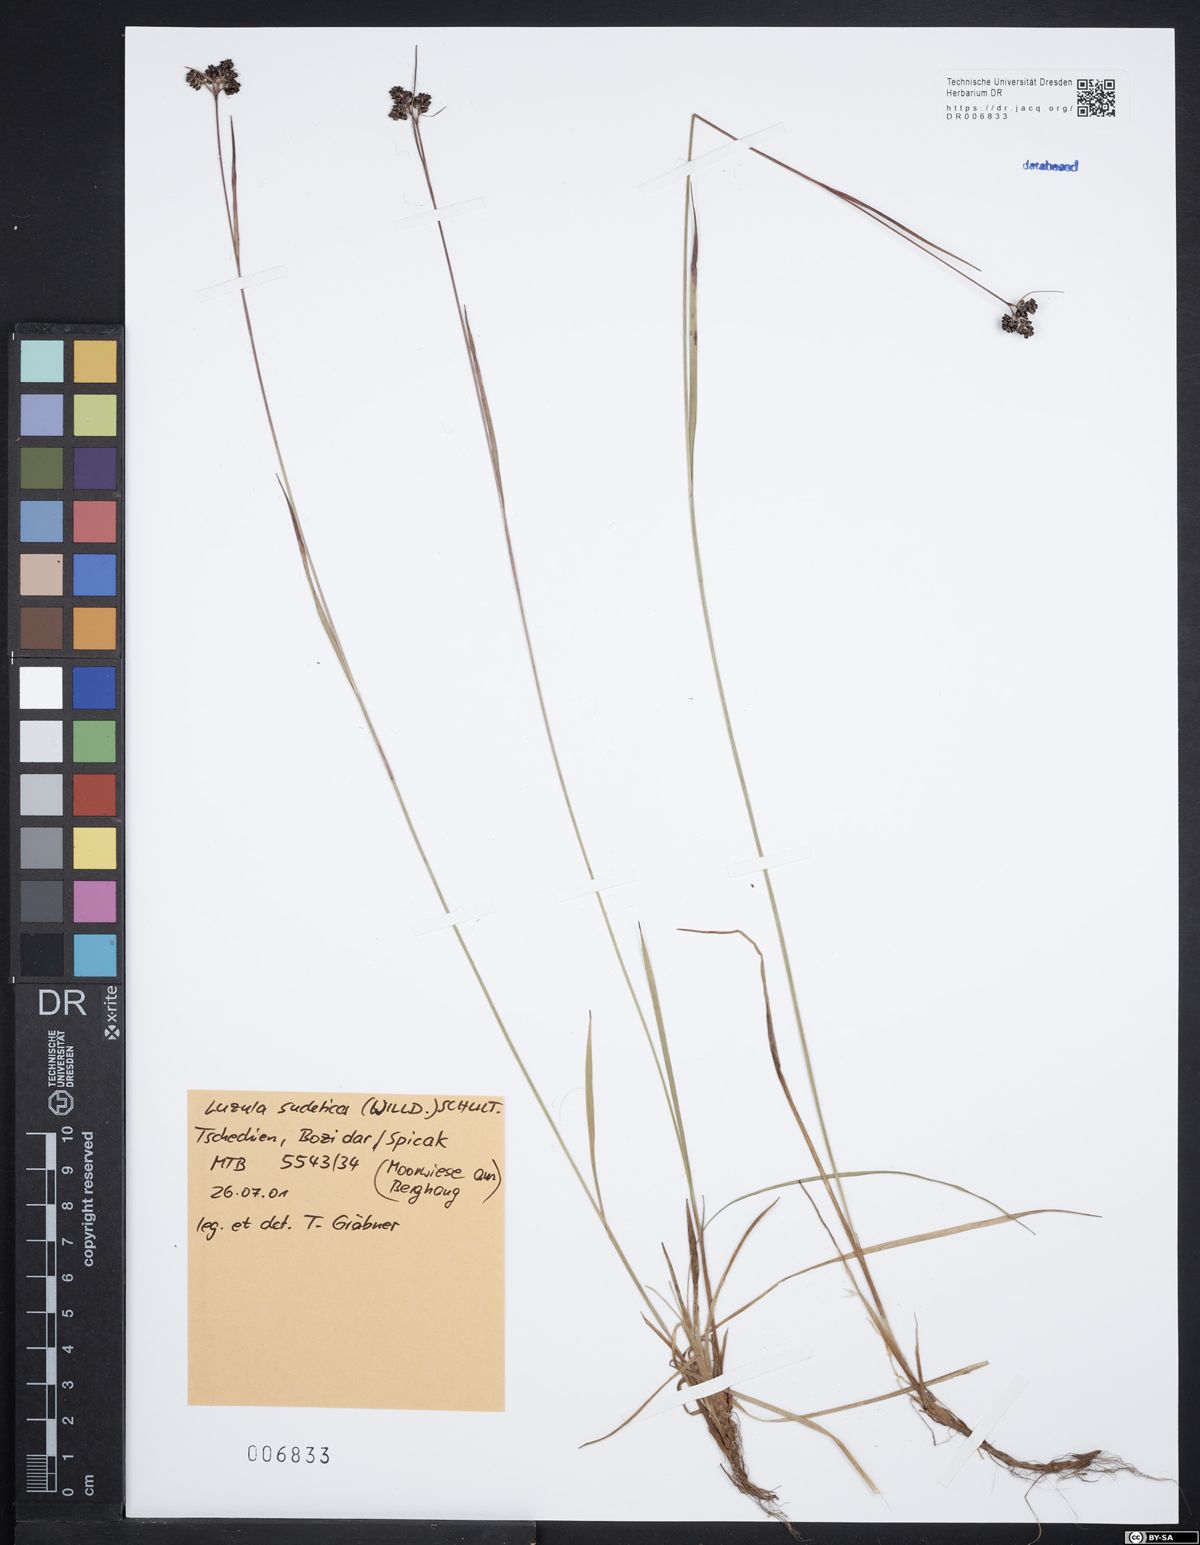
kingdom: Plantae
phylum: Tracheophyta
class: Liliopsida
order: Poales
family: Juncaceae
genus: Luzula
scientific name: Luzula sudetica
